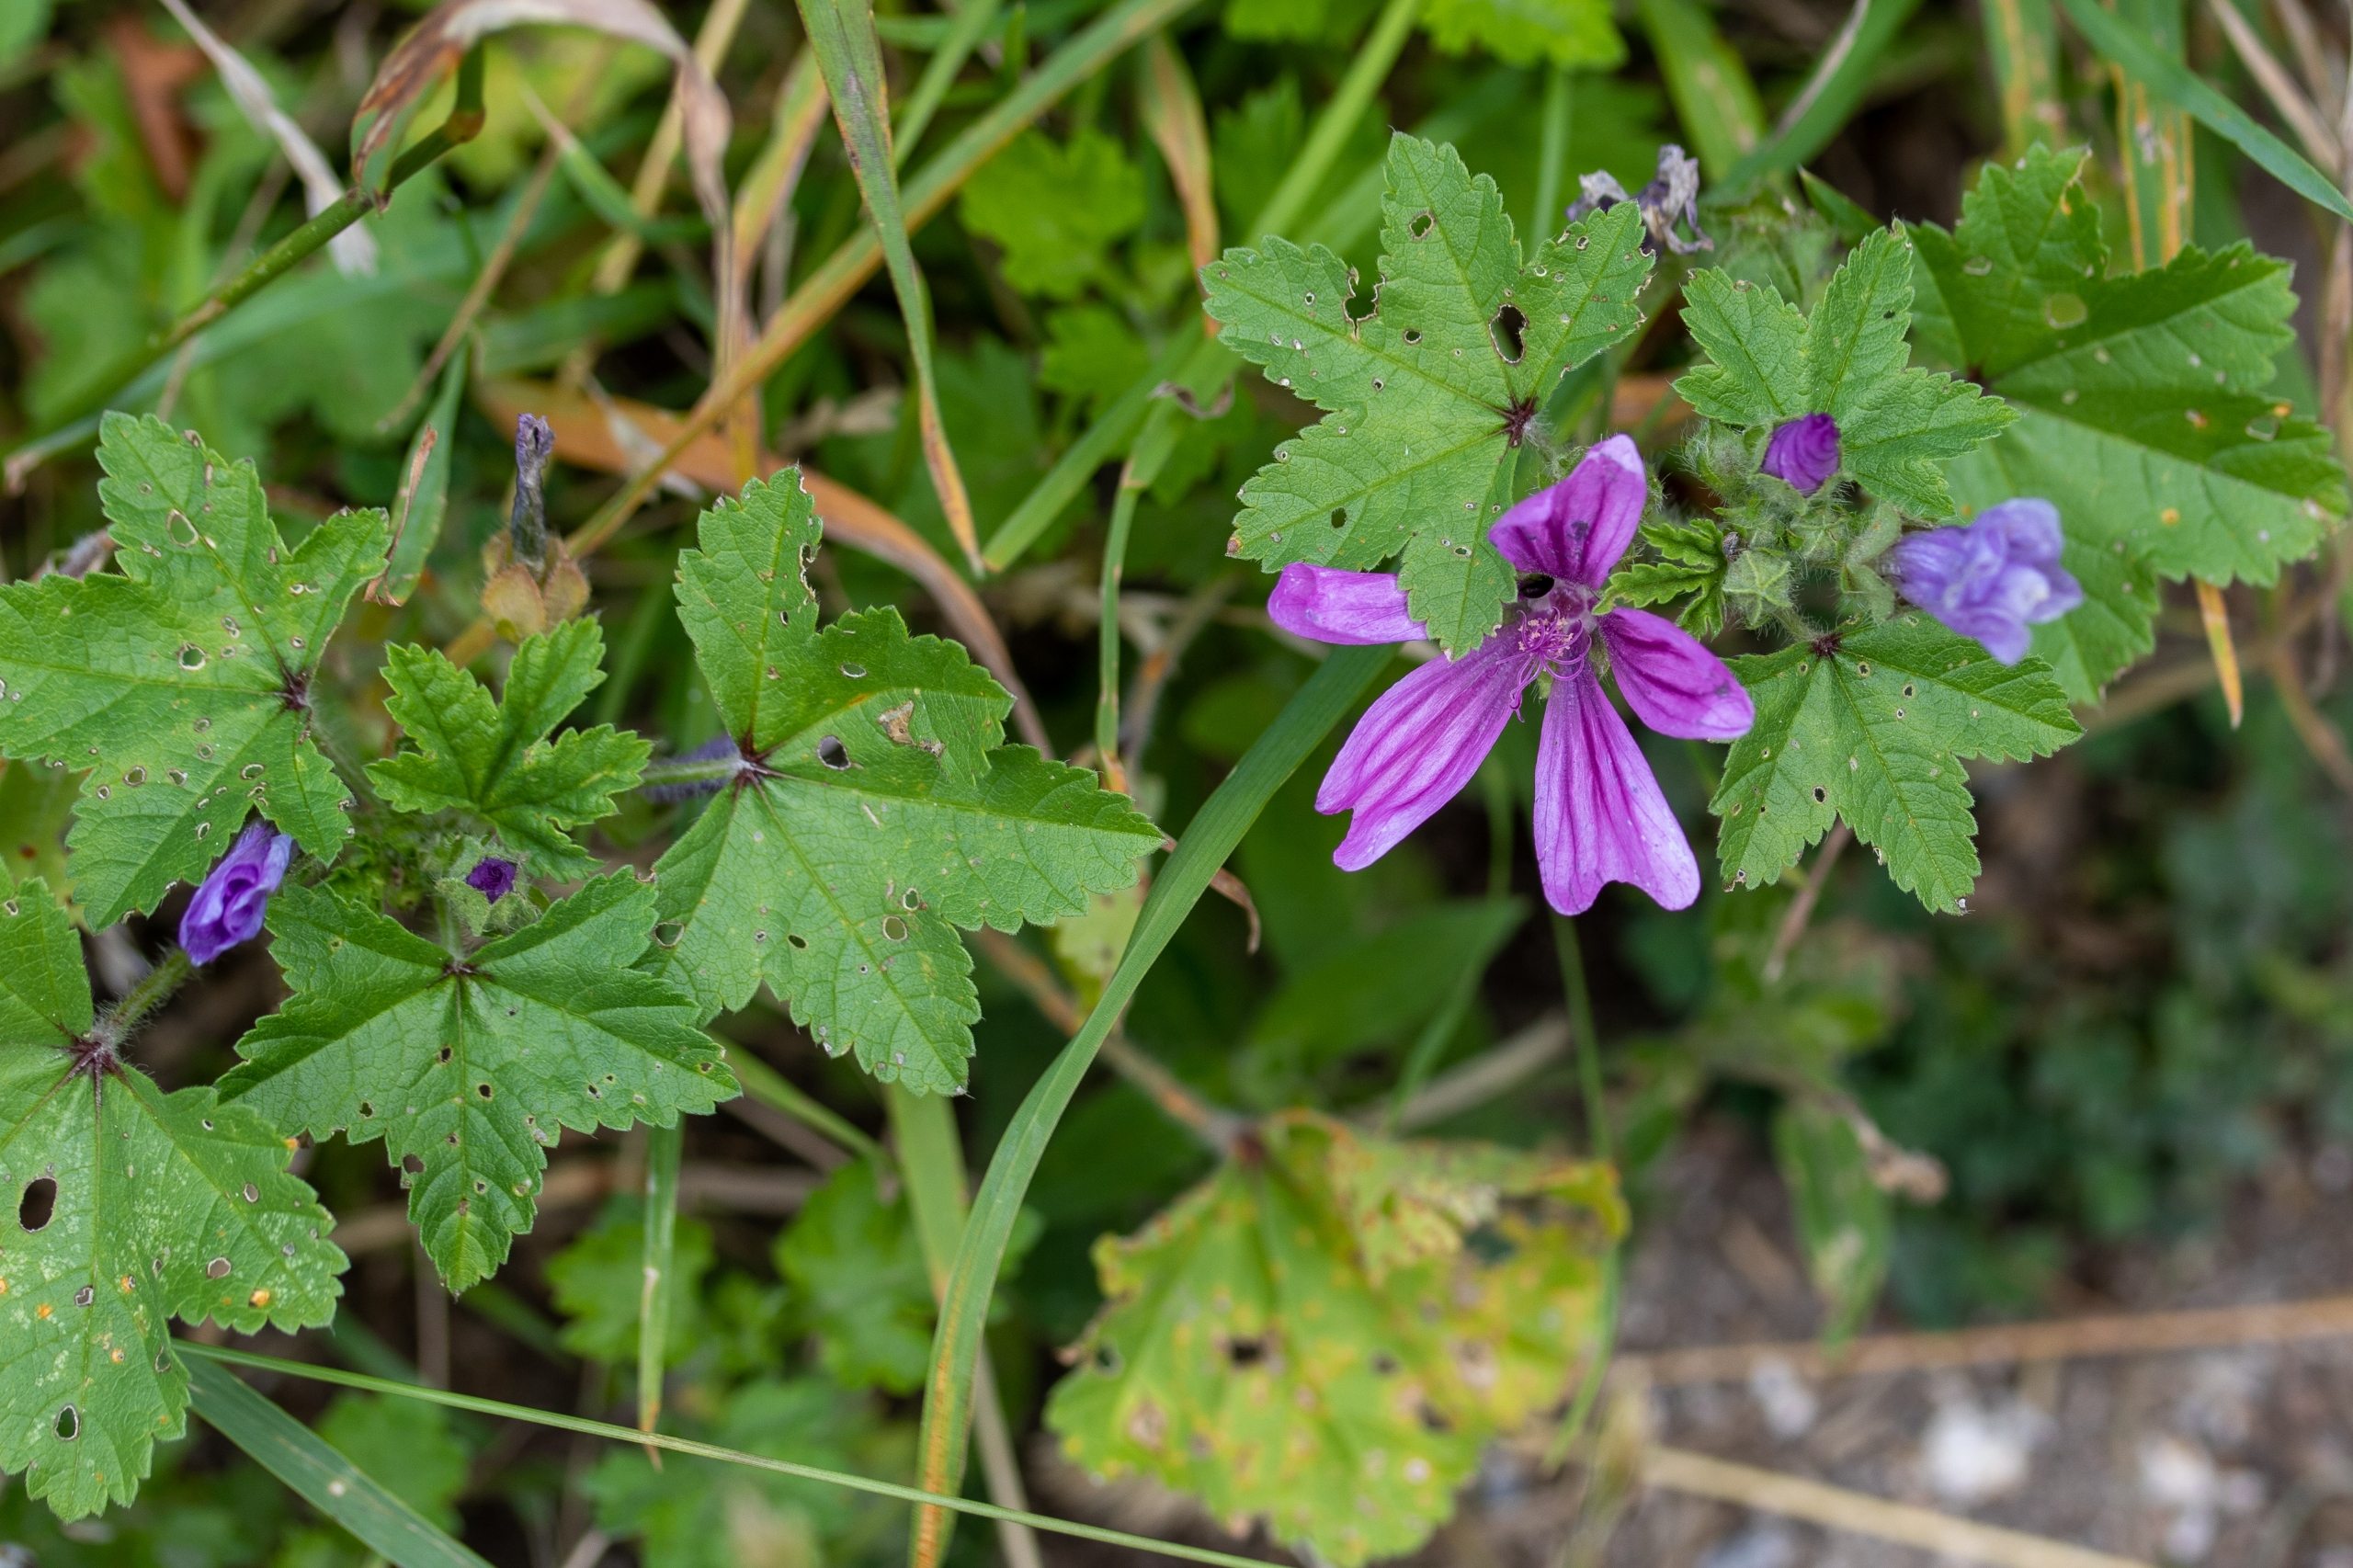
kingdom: Plantae
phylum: Tracheophyta
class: Magnoliopsida
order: Malvales
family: Malvaceae
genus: Malva
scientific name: Malva sylvestris
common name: Almindelig katost
